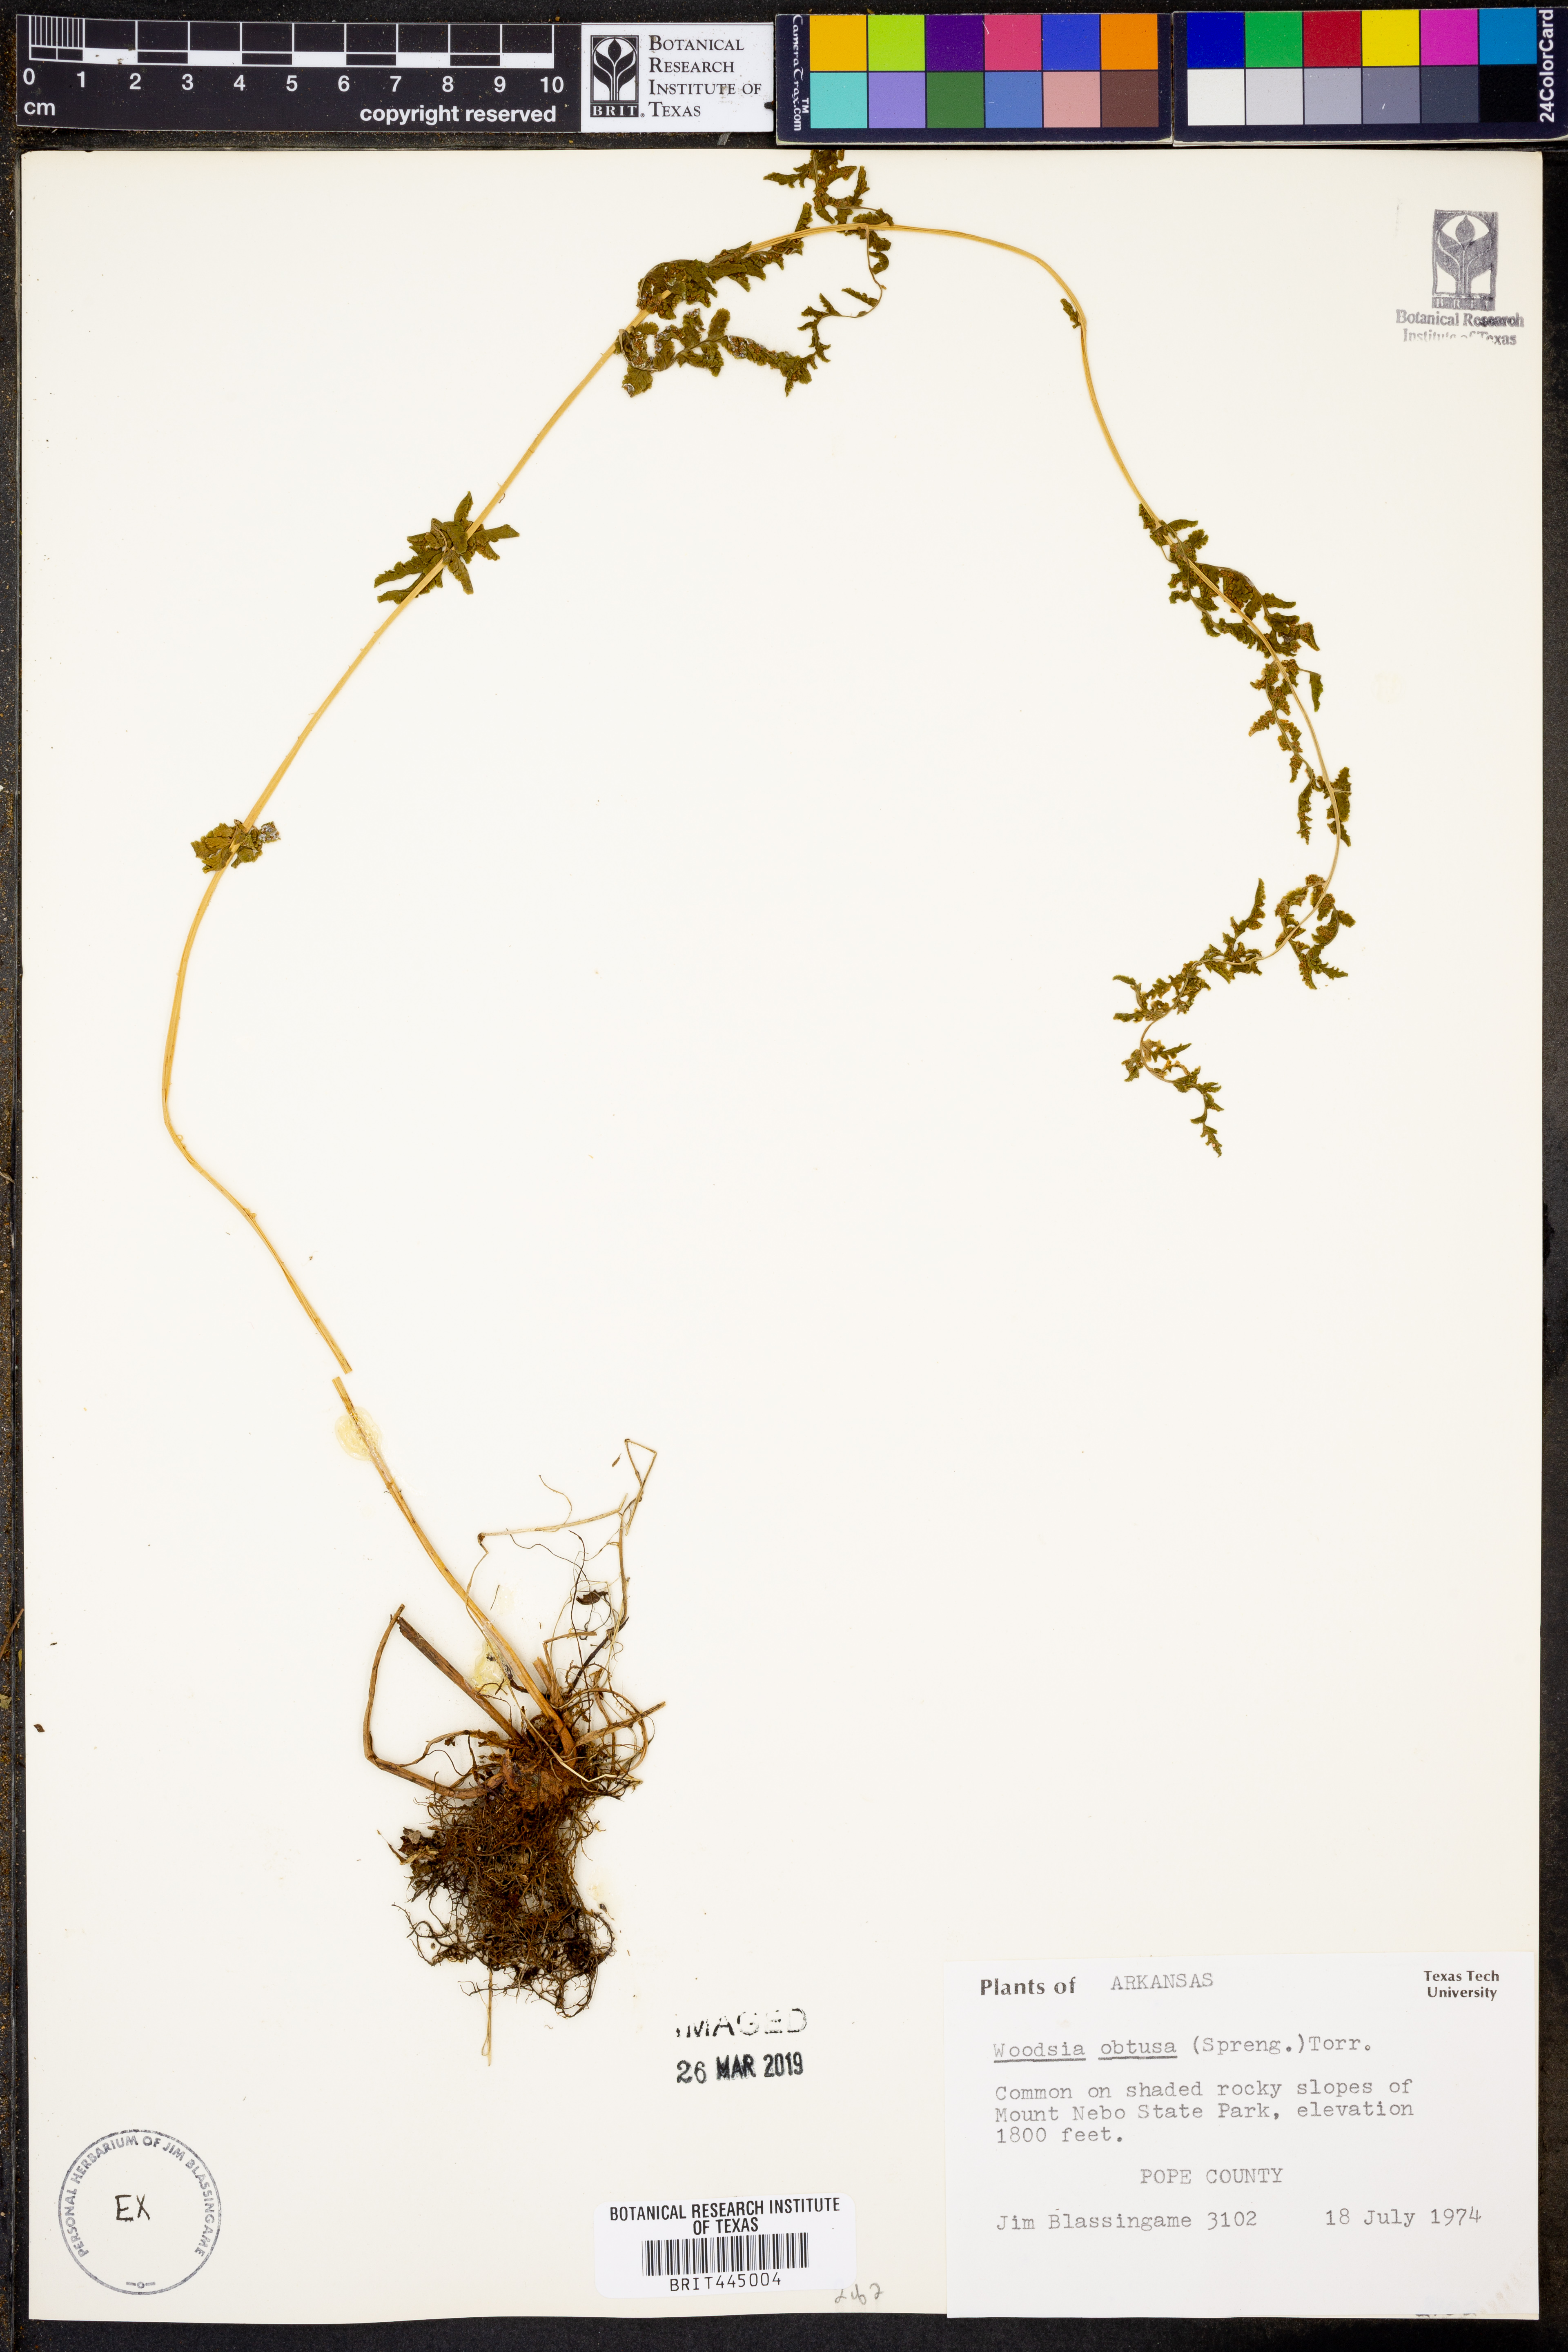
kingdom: Plantae
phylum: Tracheophyta
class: Polypodiopsida
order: Polypodiales
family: Woodsiaceae
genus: Physematium
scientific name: Physematium obtusum
